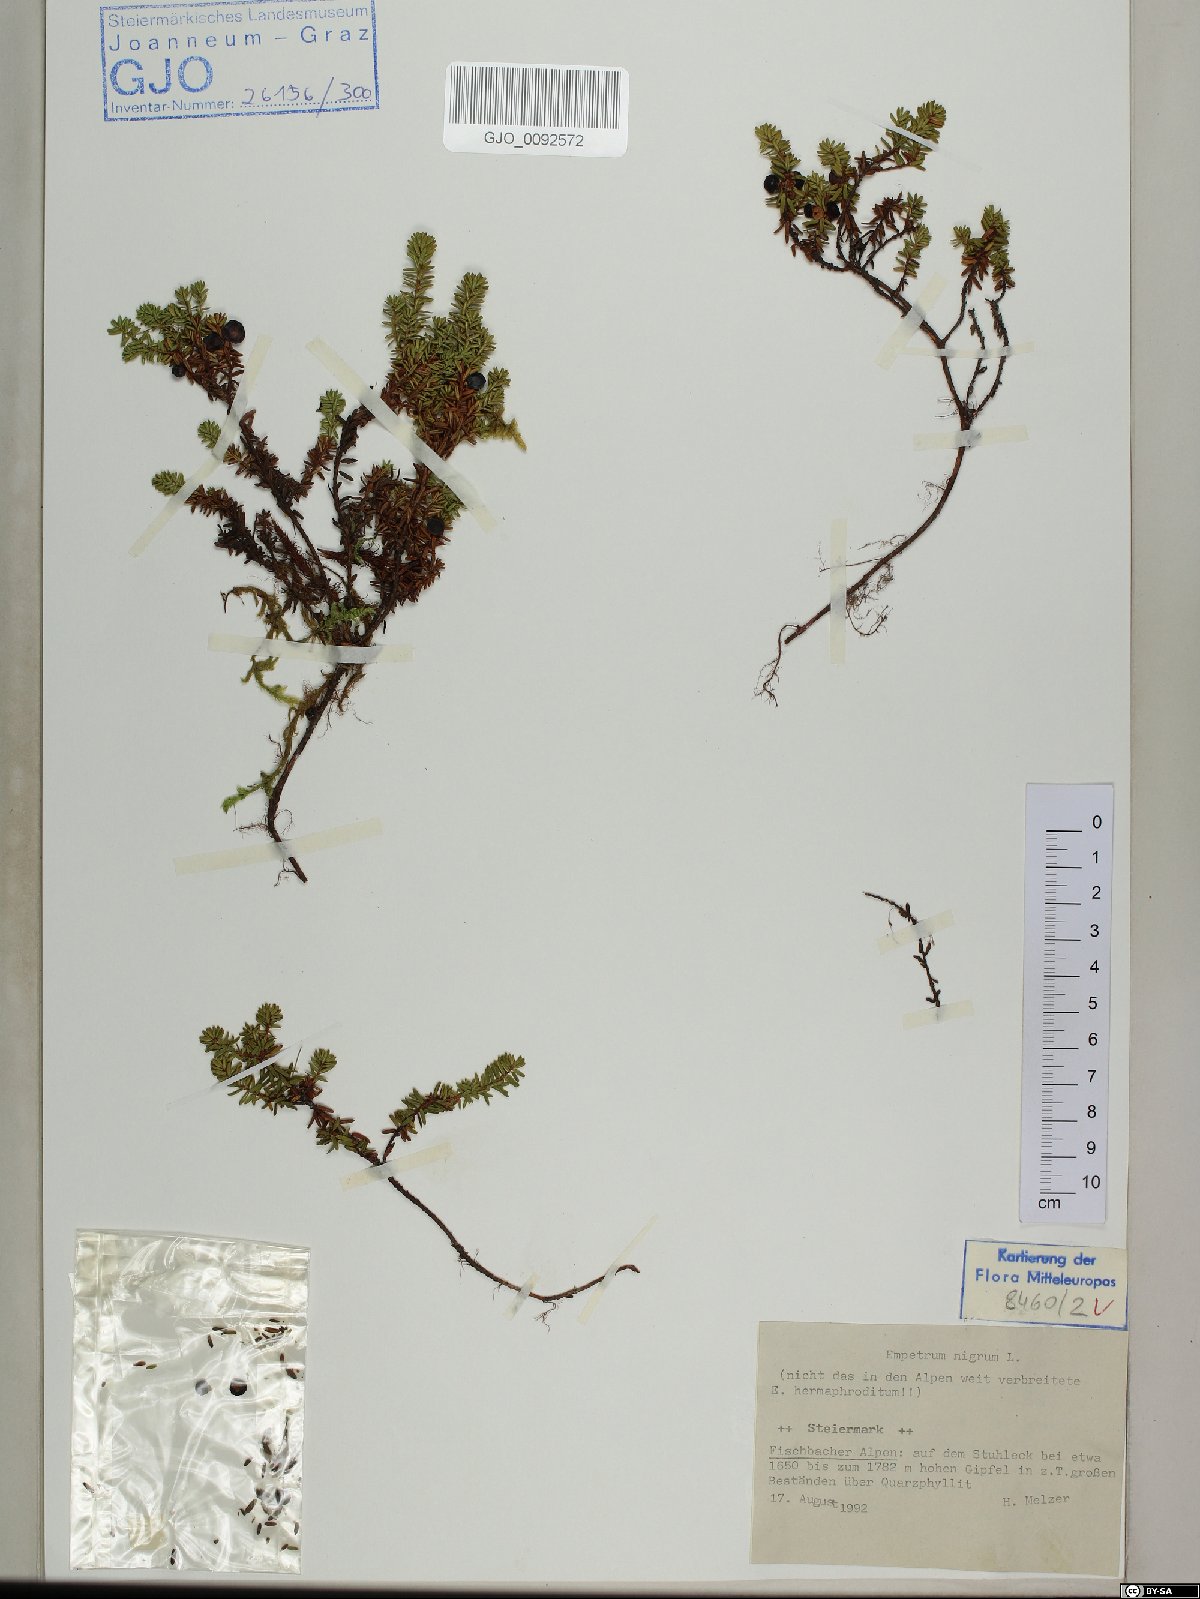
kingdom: Plantae
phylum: Tracheophyta
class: Magnoliopsida
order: Ericales
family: Ericaceae
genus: Empetrum
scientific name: Empetrum nigrum
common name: Black crowberry
